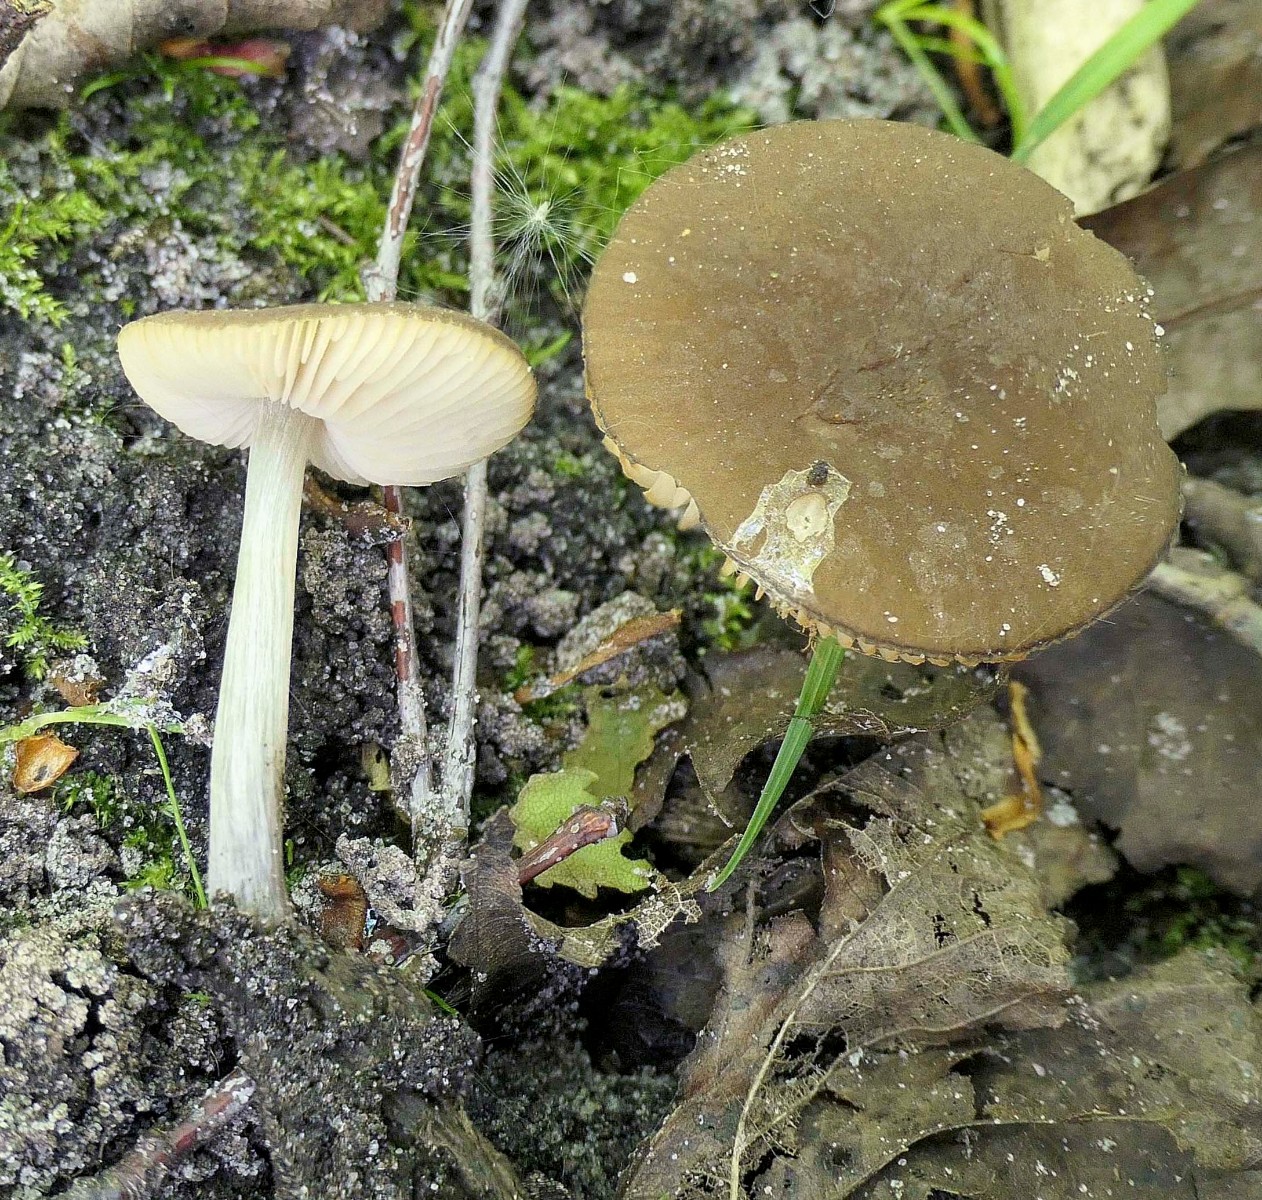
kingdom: Fungi
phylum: Basidiomycota
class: Agaricomycetes
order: Agaricales
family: Pluteaceae
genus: Pluteus
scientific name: Pluteus
